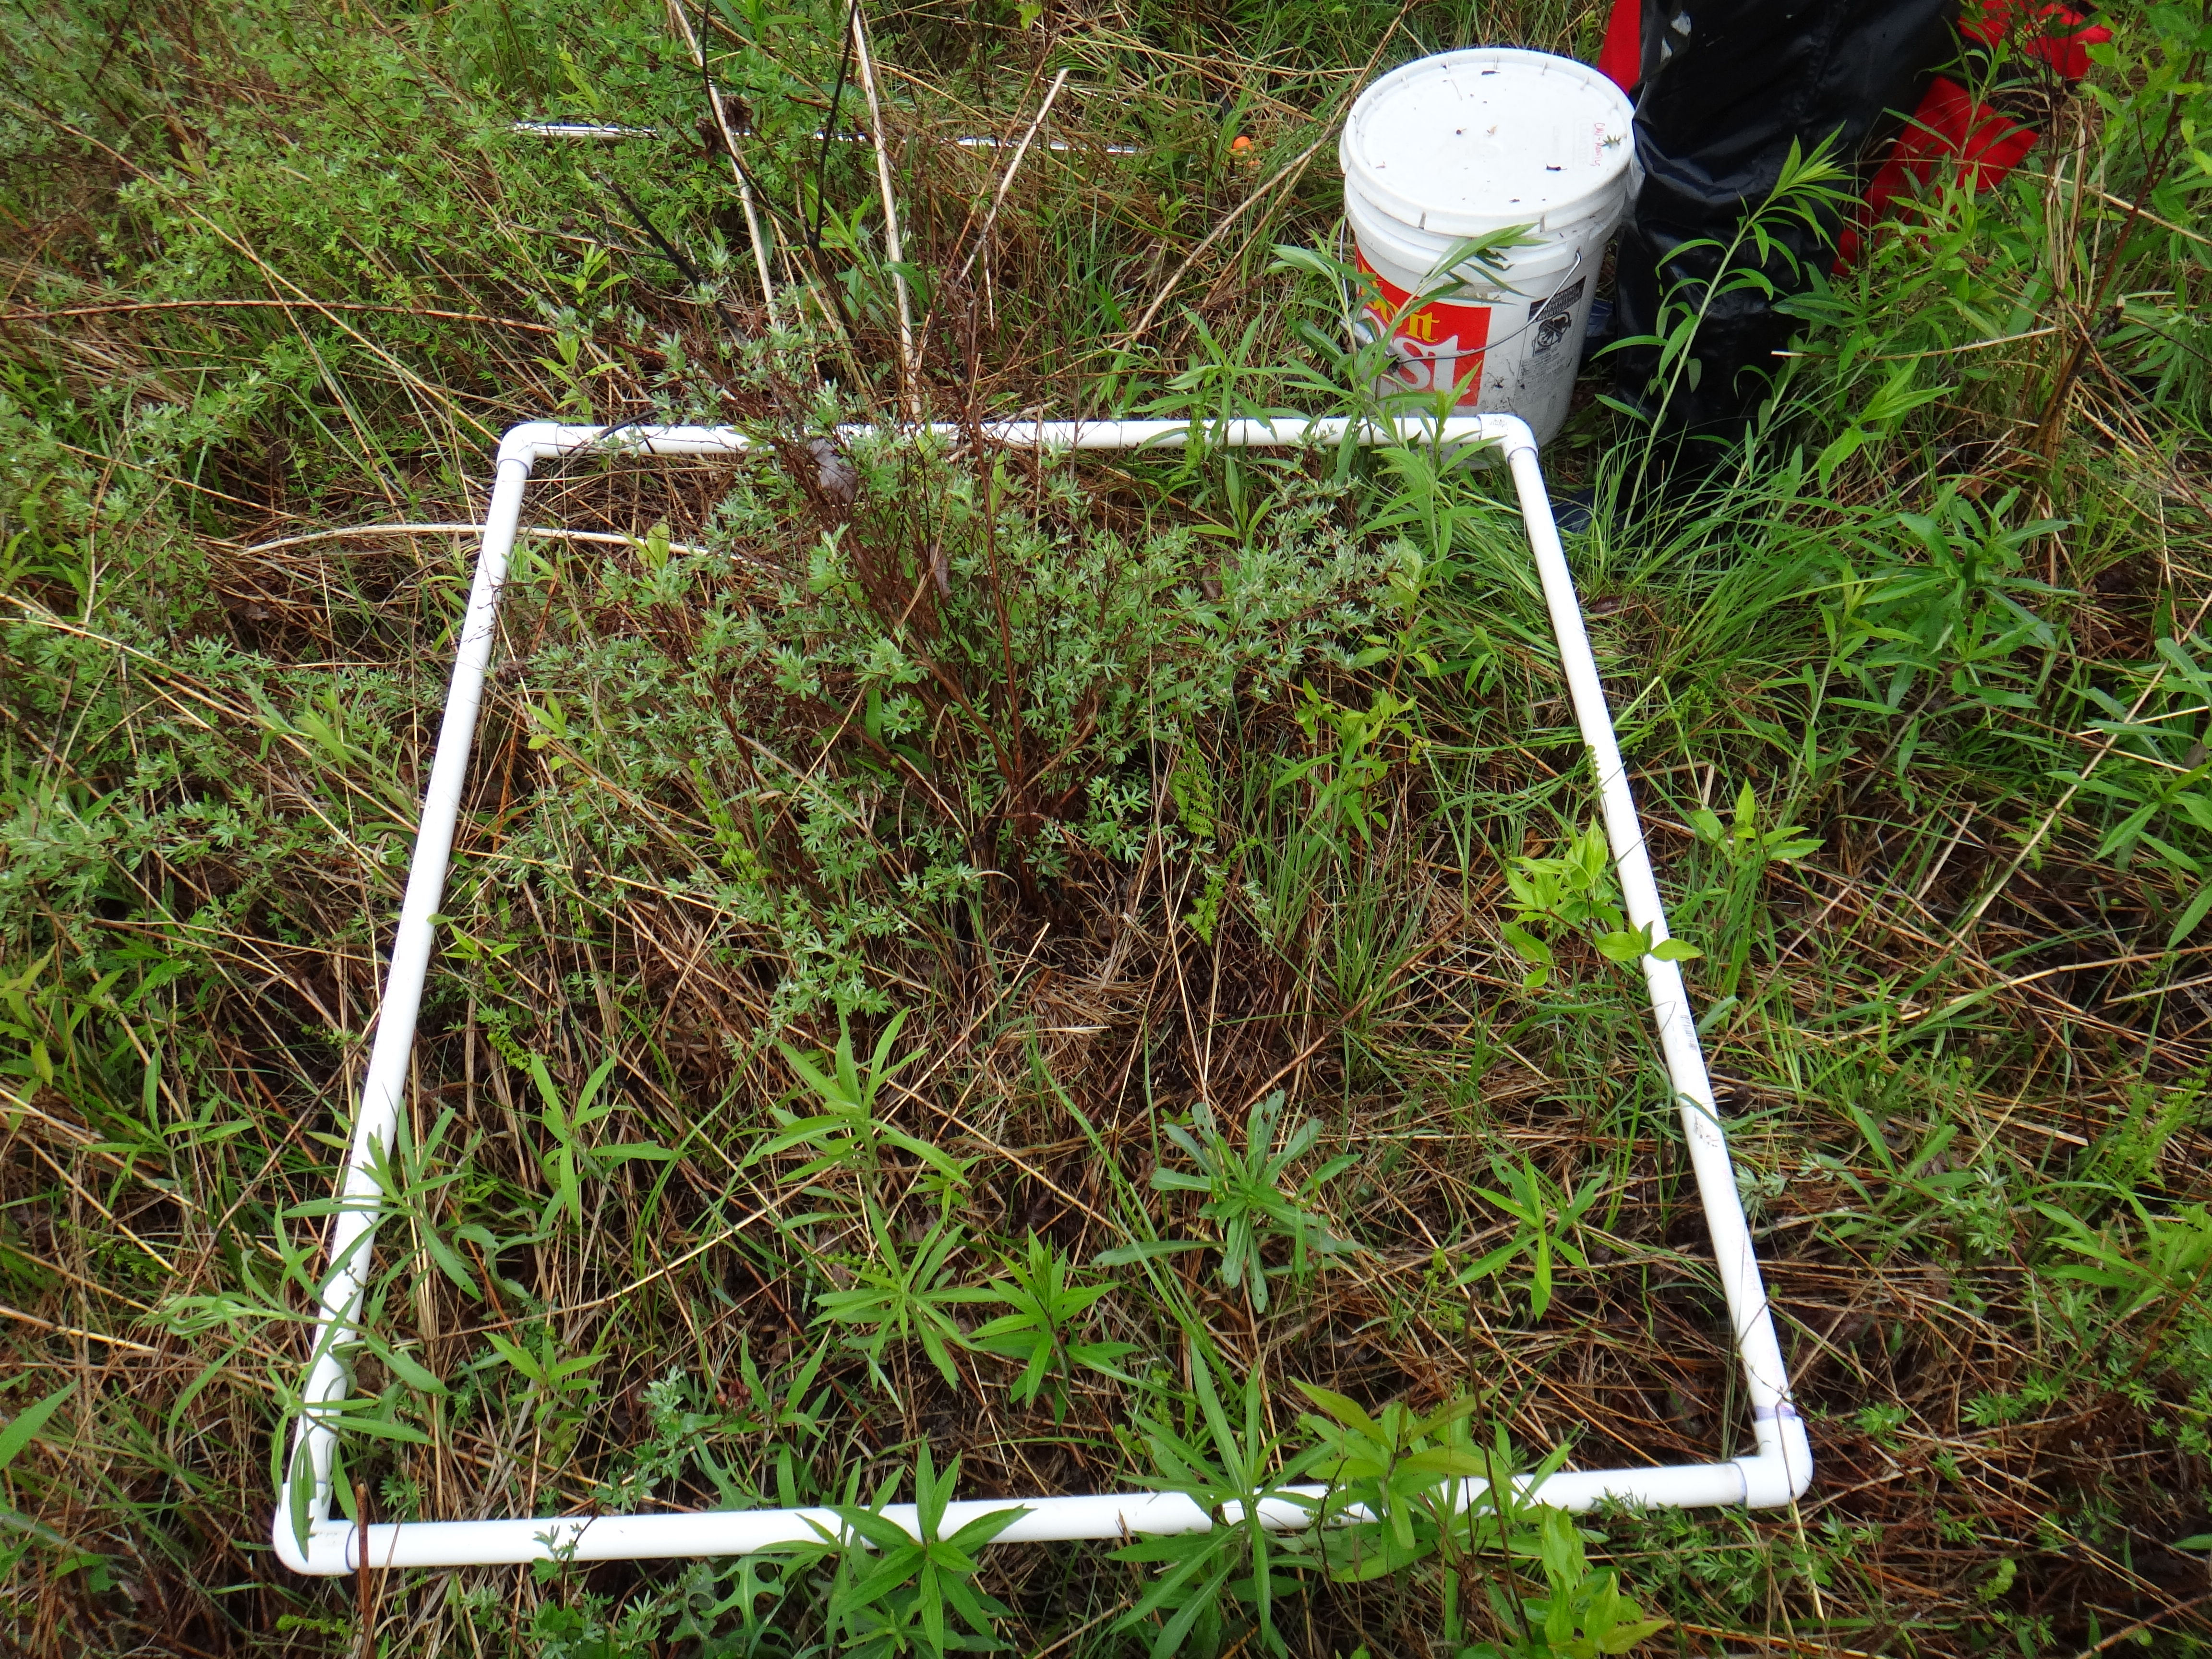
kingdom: Plantae
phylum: Tracheophyta
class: Magnoliopsida
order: Asterales
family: Asteraceae
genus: Doellingeria
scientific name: Doellingeria umbellata
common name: Flat-top white aster
